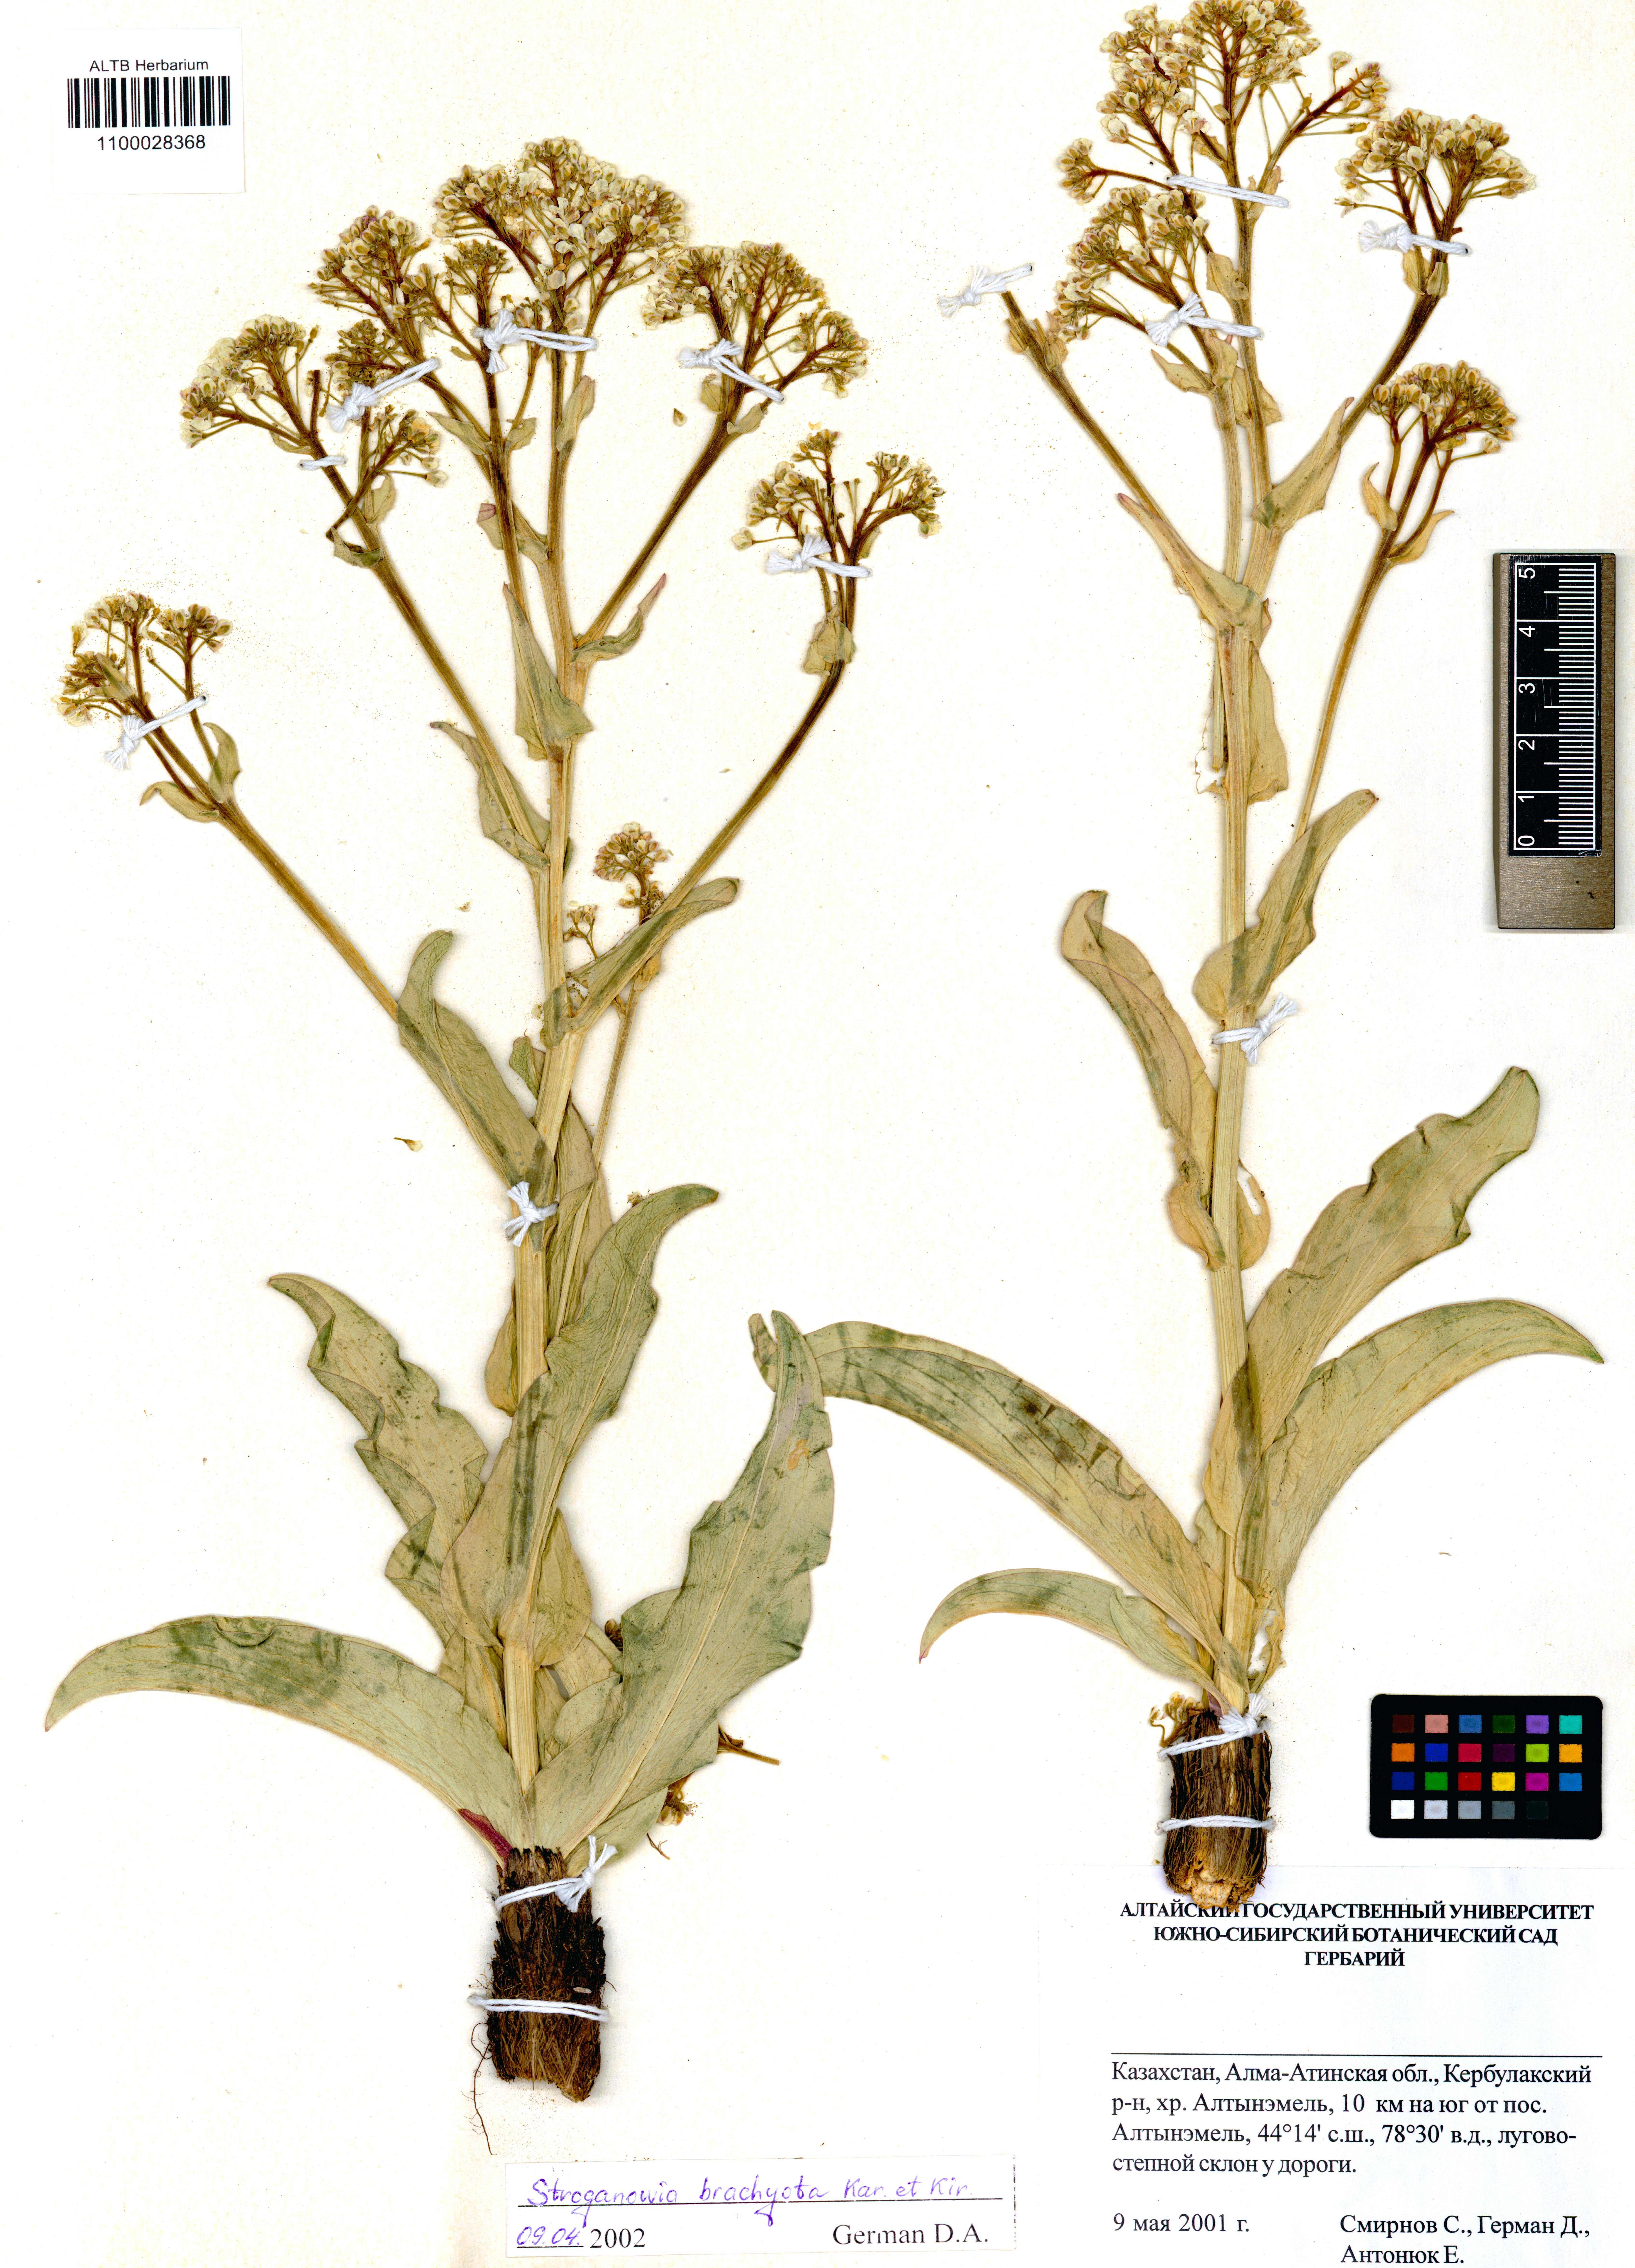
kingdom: Plantae
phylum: Tracheophyta
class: Magnoliopsida
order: Brassicales
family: Brassicaceae
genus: Lepidium
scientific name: Lepidium brachyotum
